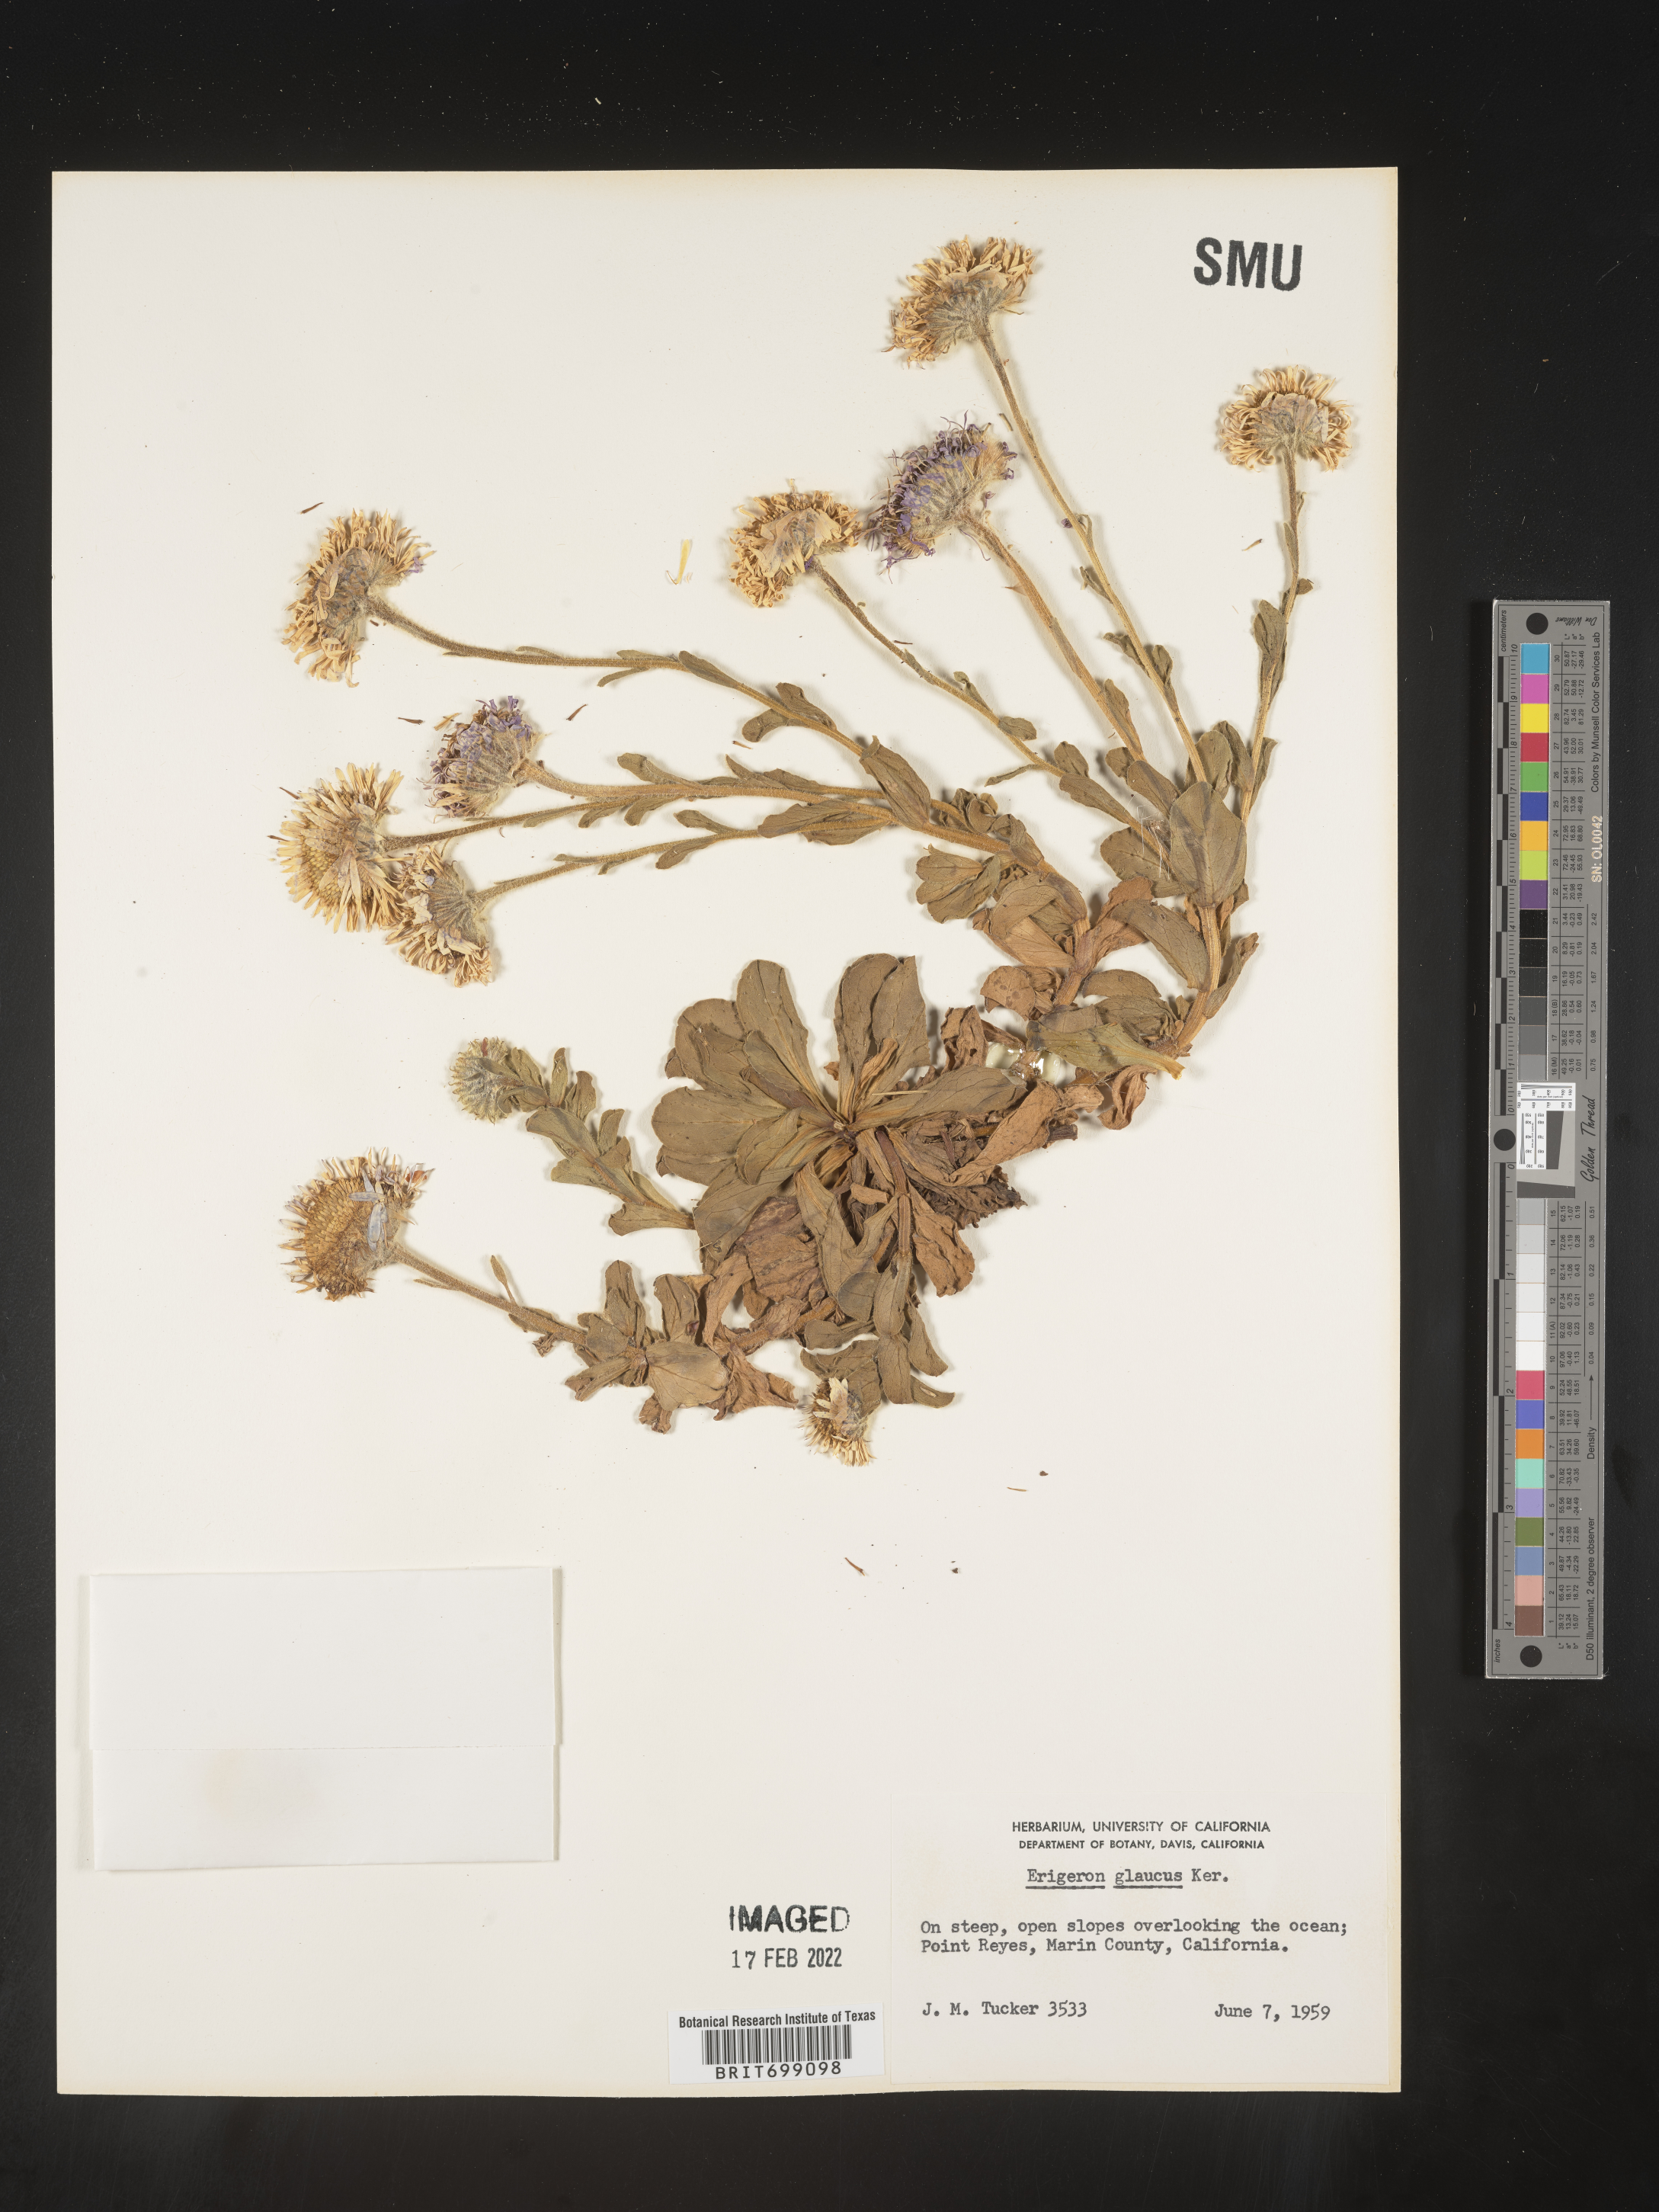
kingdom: Plantae
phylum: Tracheophyta
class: Magnoliopsida
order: Asterales
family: Asteraceae
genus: Erigeron
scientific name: Erigeron glaucus
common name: Seaside daisy
